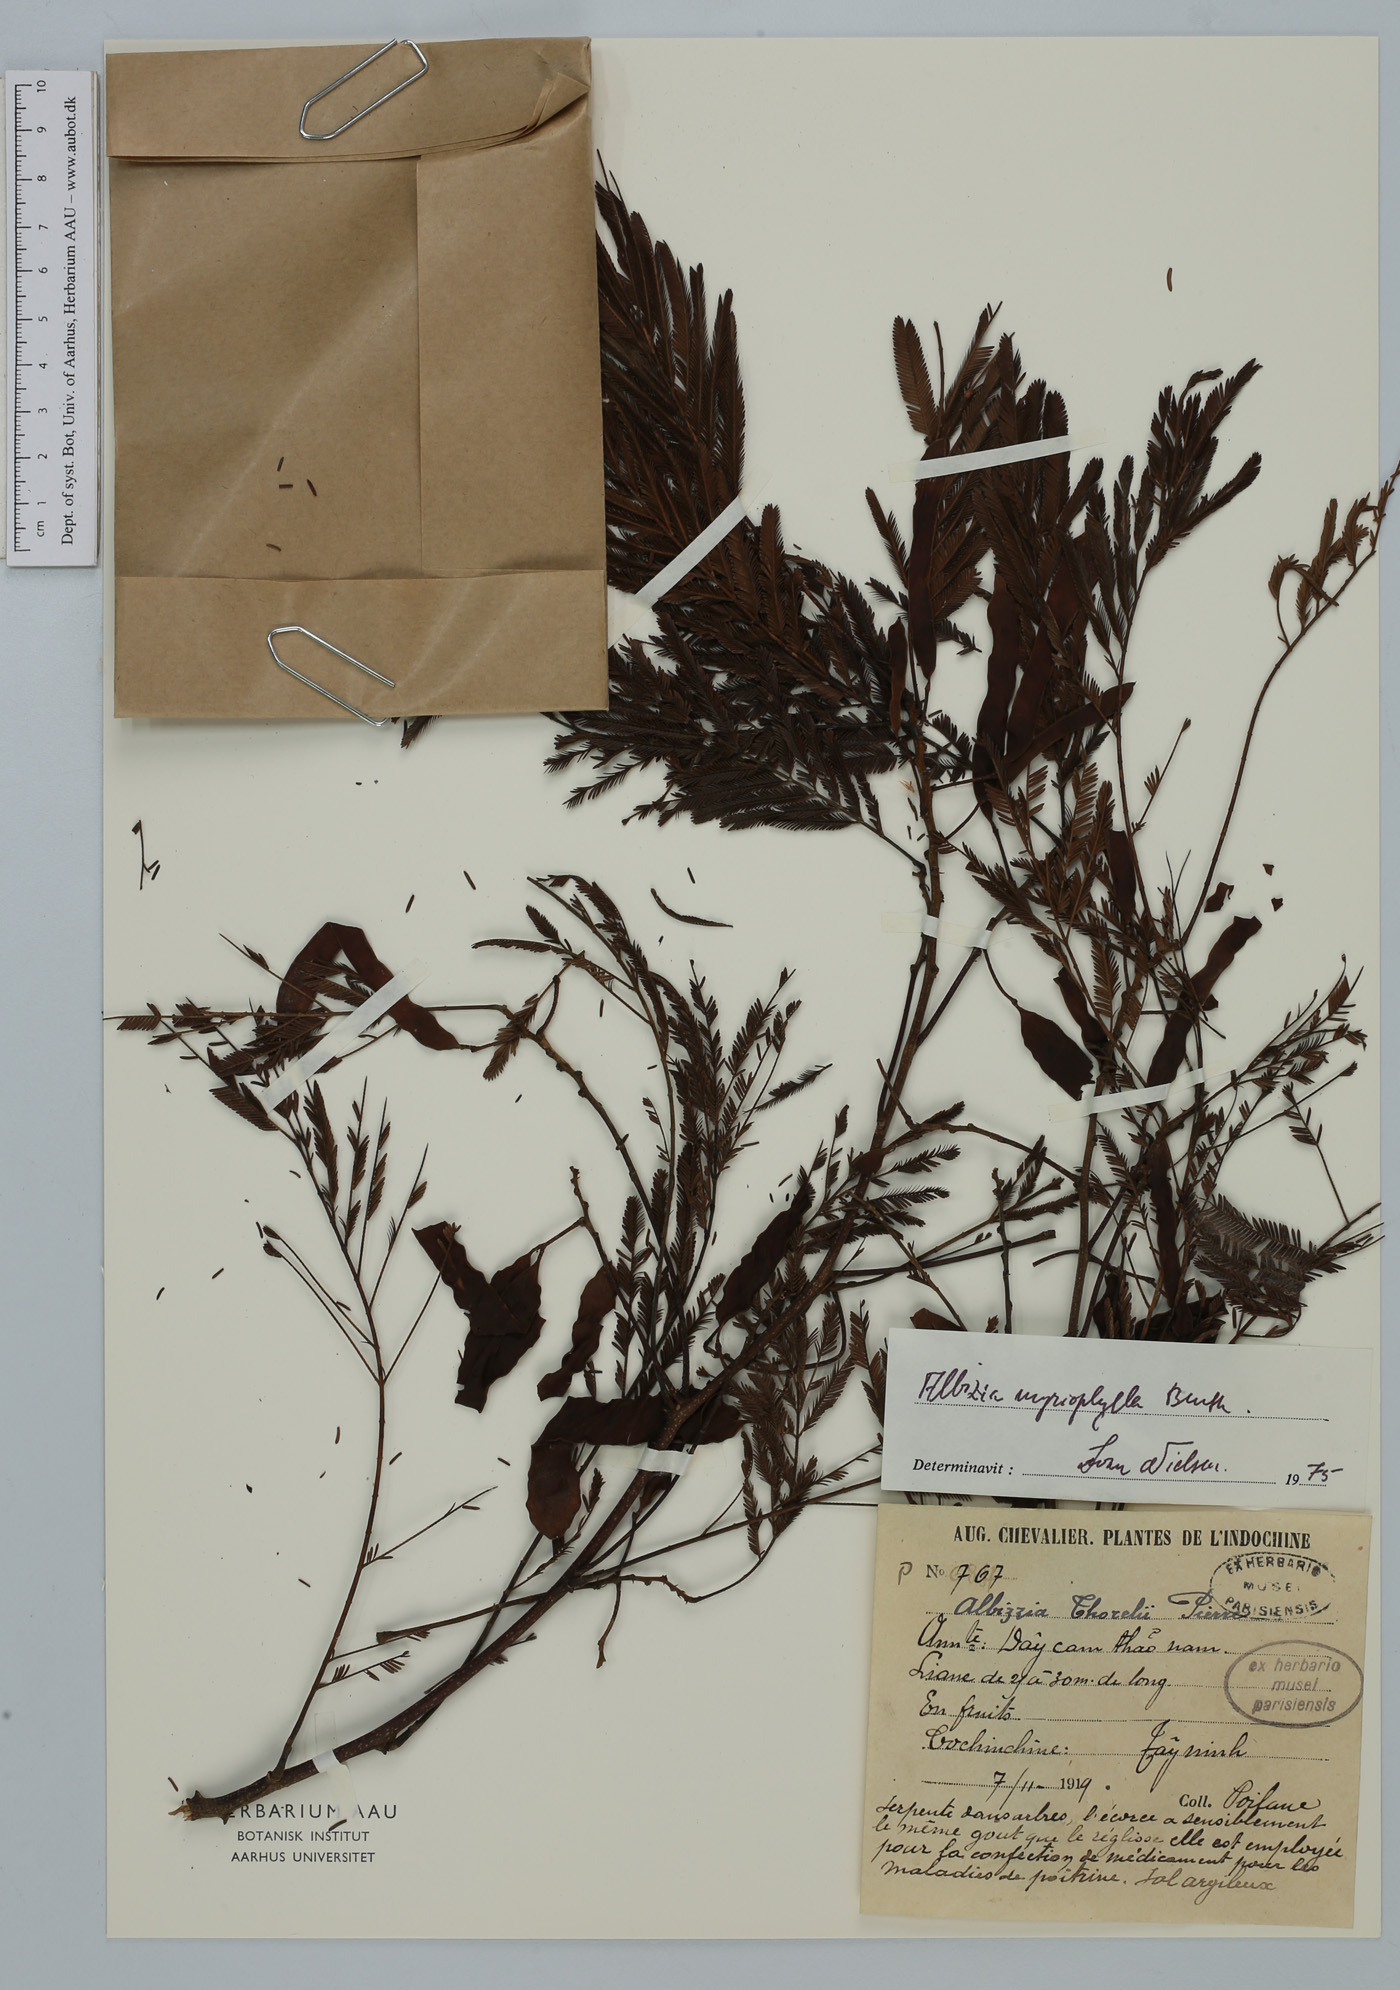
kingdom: Plantae
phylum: Tracheophyta
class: Magnoliopsida
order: Fabales
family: Fabaceae
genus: Albizia
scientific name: Albizia myriophylla
